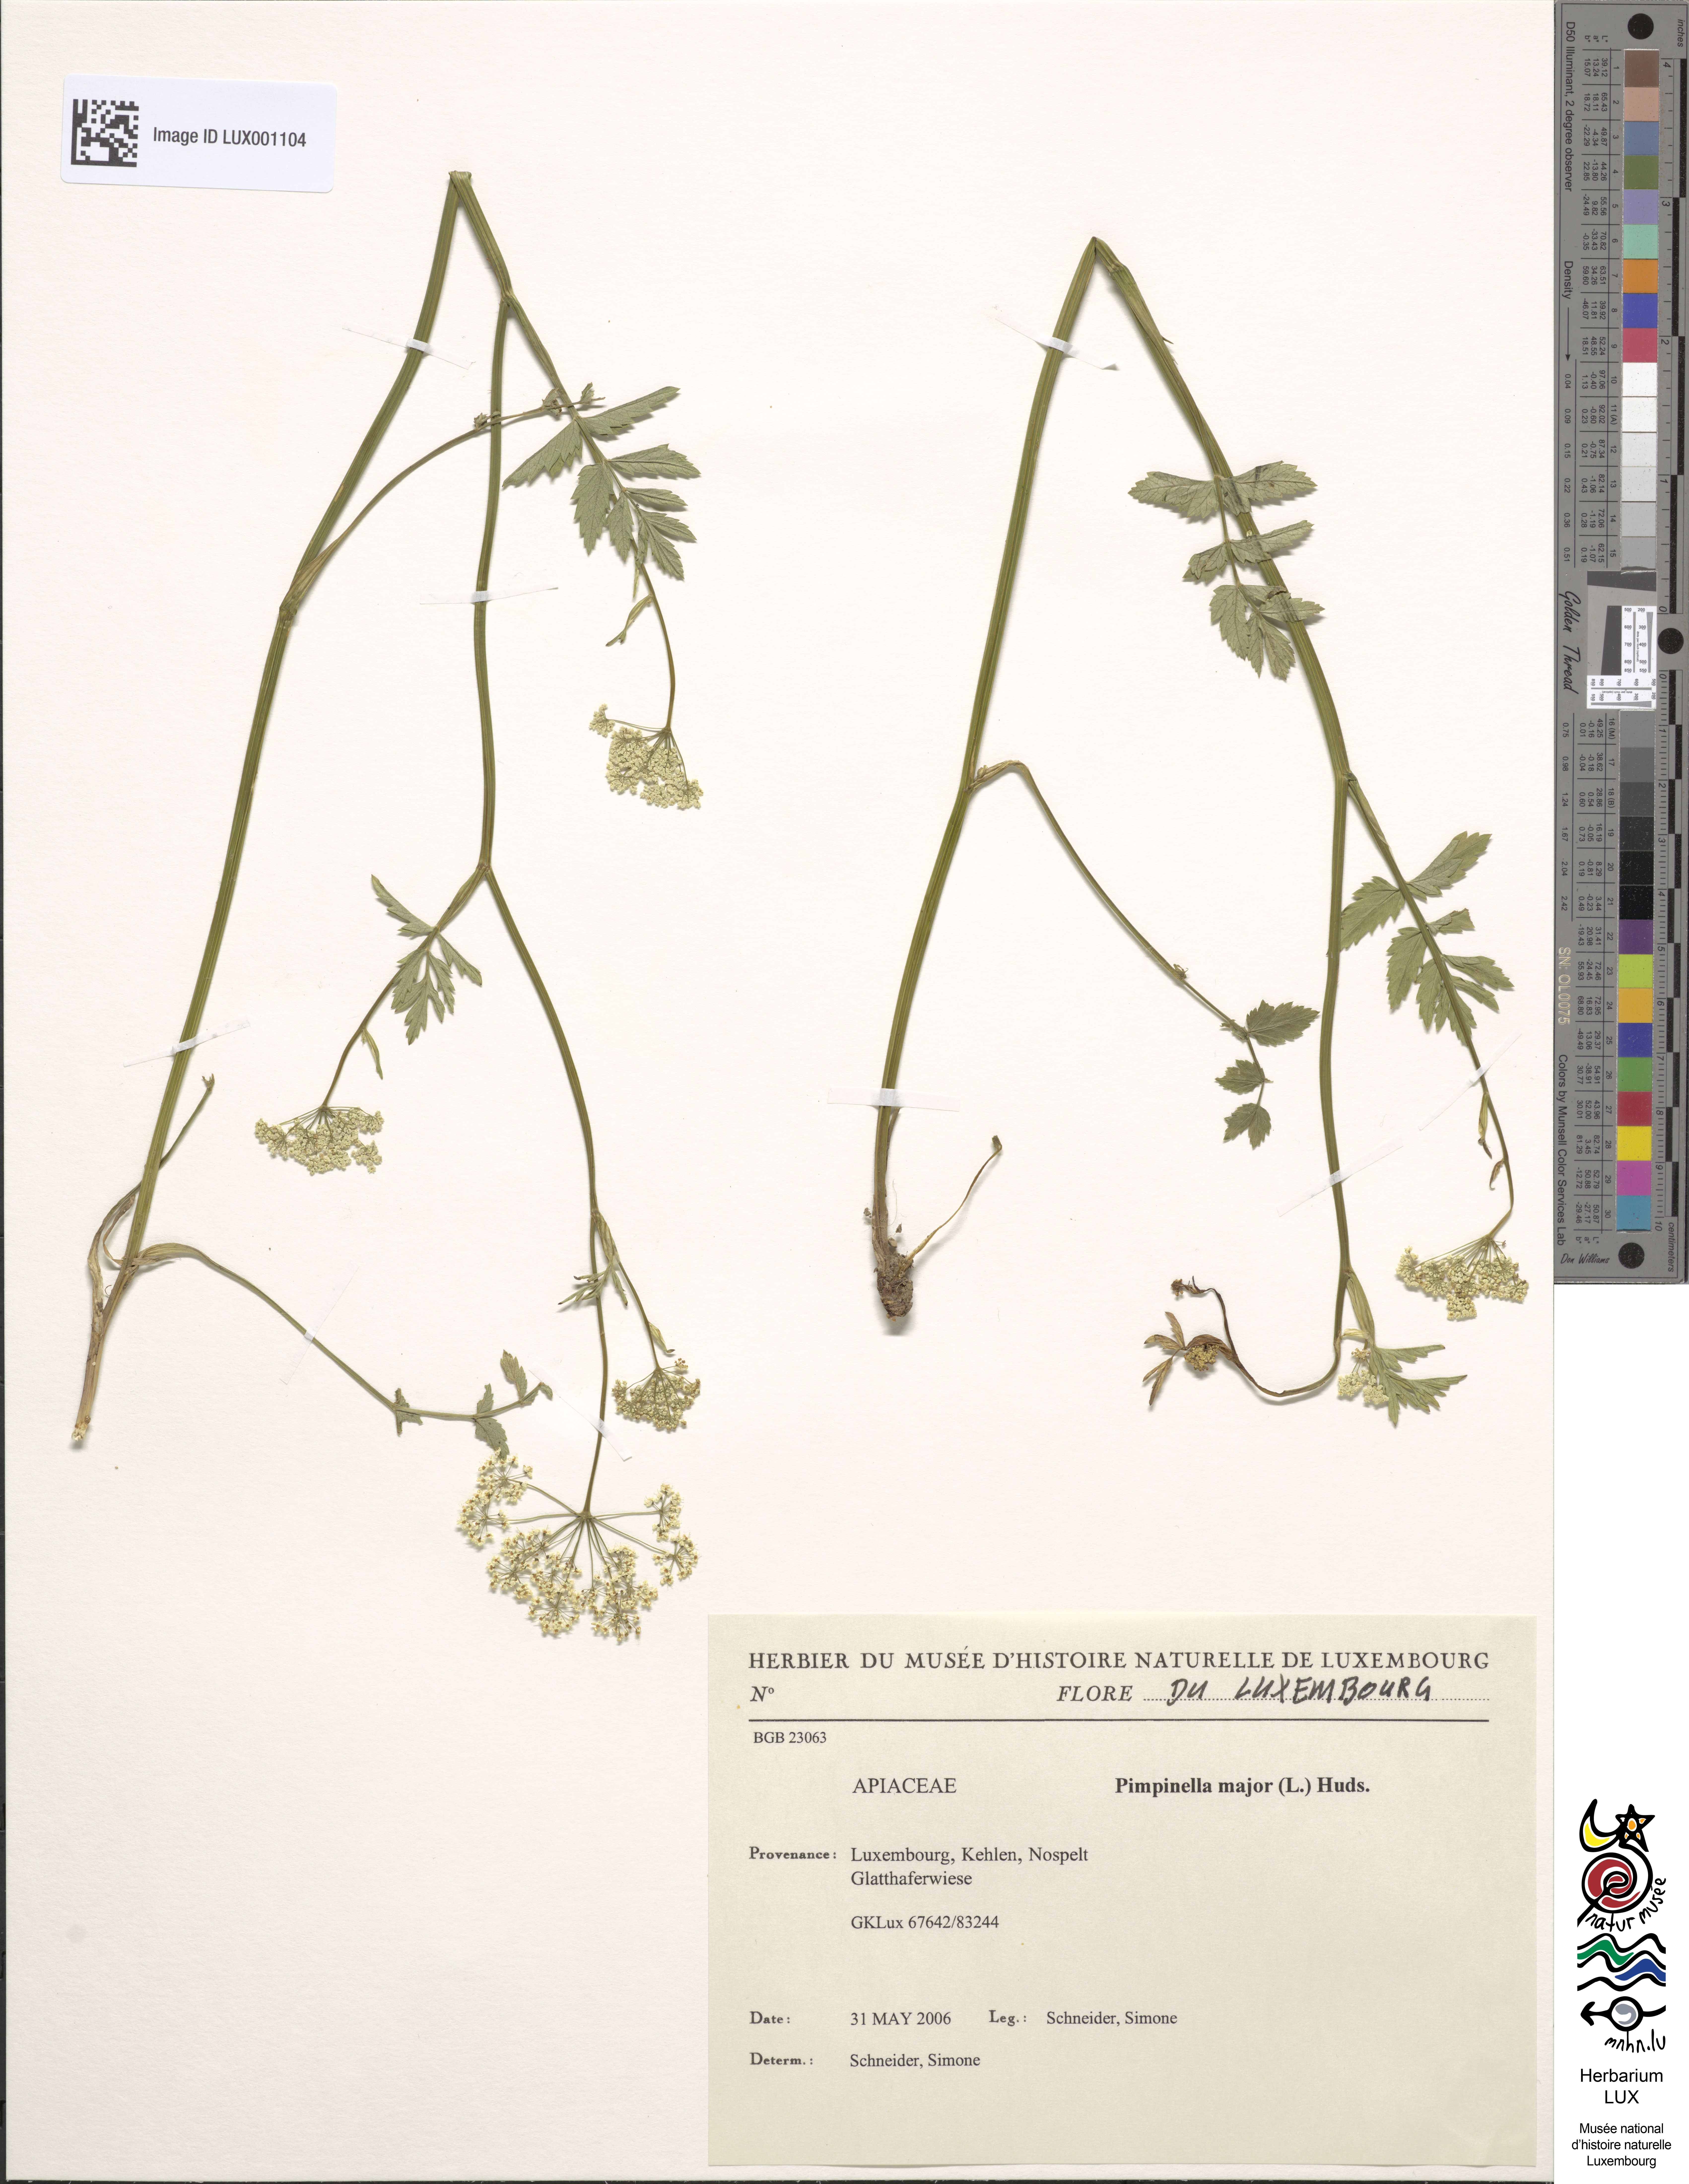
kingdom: Plantae
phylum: Tracheophyta
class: Magnoliopsida
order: Apiales
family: Apiaceae
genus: Pimpinella
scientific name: Pimpinella major
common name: Greater burnet-saxifrage
